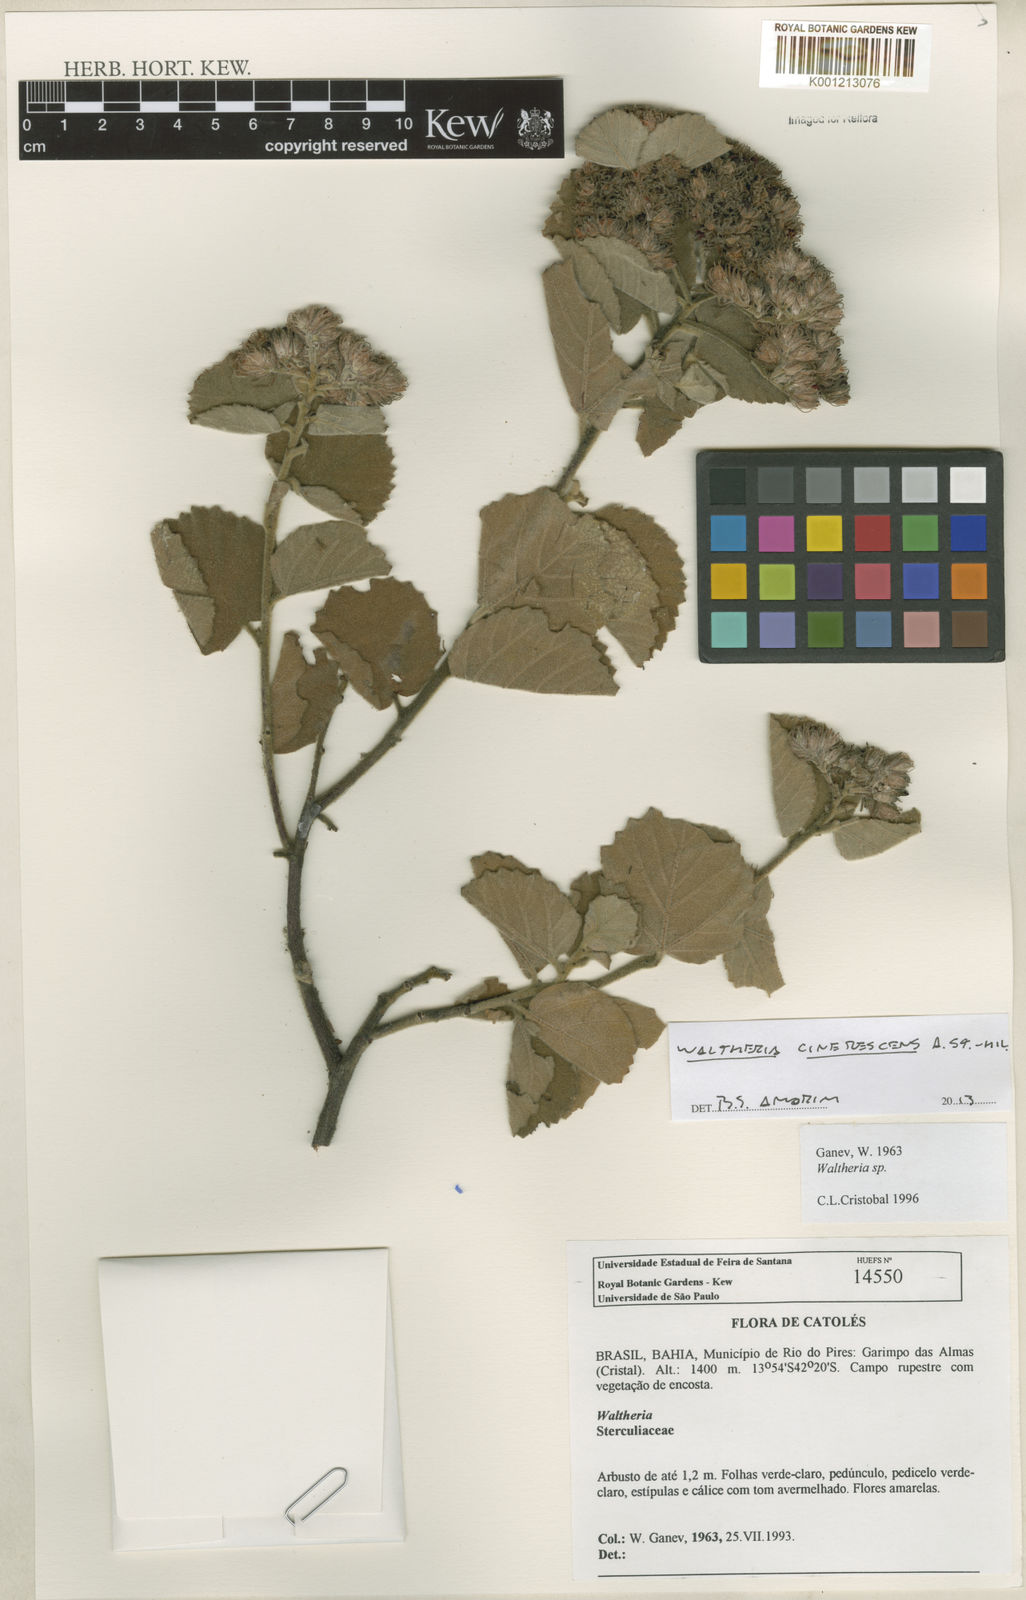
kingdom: Plantae
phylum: Tracheophyta
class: Magnoliopsida
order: Malvales
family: Malvaceae
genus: Waltheria
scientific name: Waltheria cinerescens
